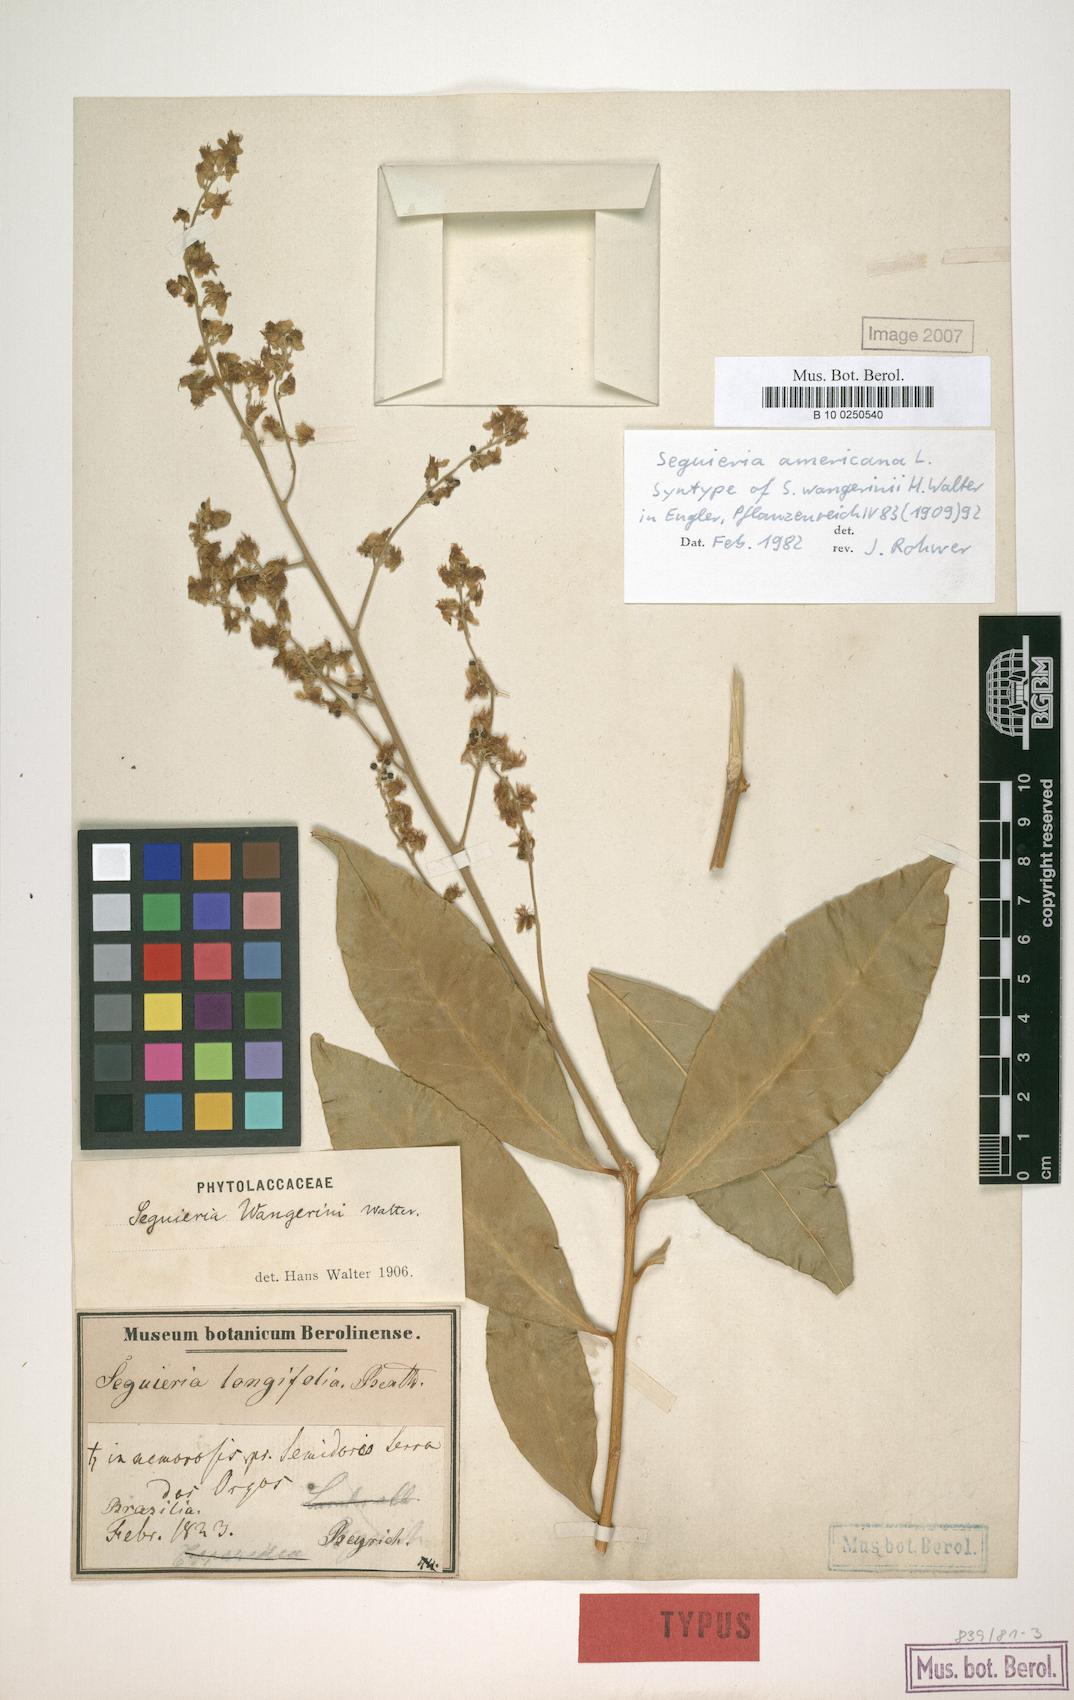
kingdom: Plantae
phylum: Tracheophyta
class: Magnoliopsida
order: Caryophyllales
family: Phytolaccaceae
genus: Seguieria
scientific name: Seguieria americana
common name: American seguieria
